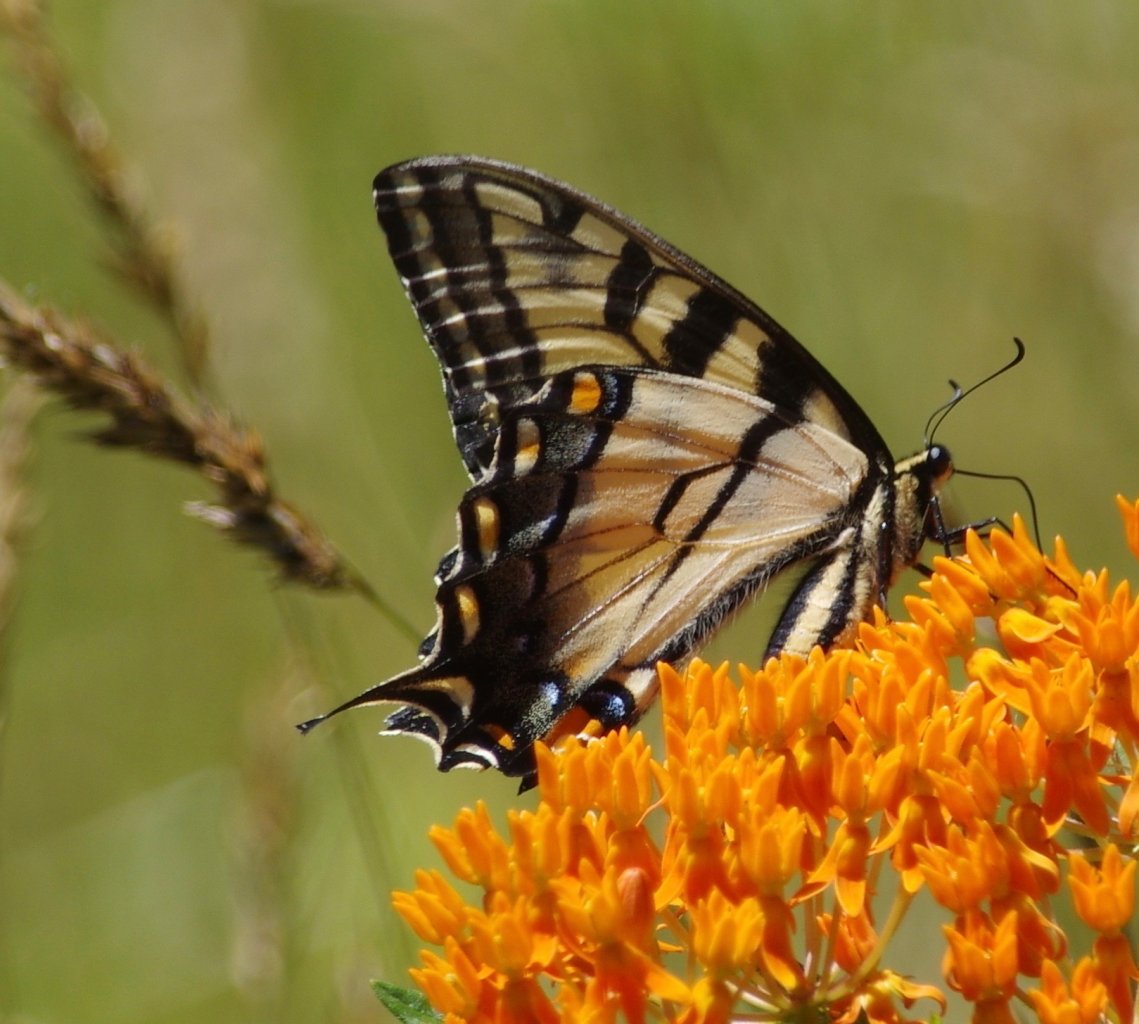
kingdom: Animalia
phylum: Arthropoda
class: Insecta
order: Lepidoptera
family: Papilionidae
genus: Pterourus
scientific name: Pterourus
